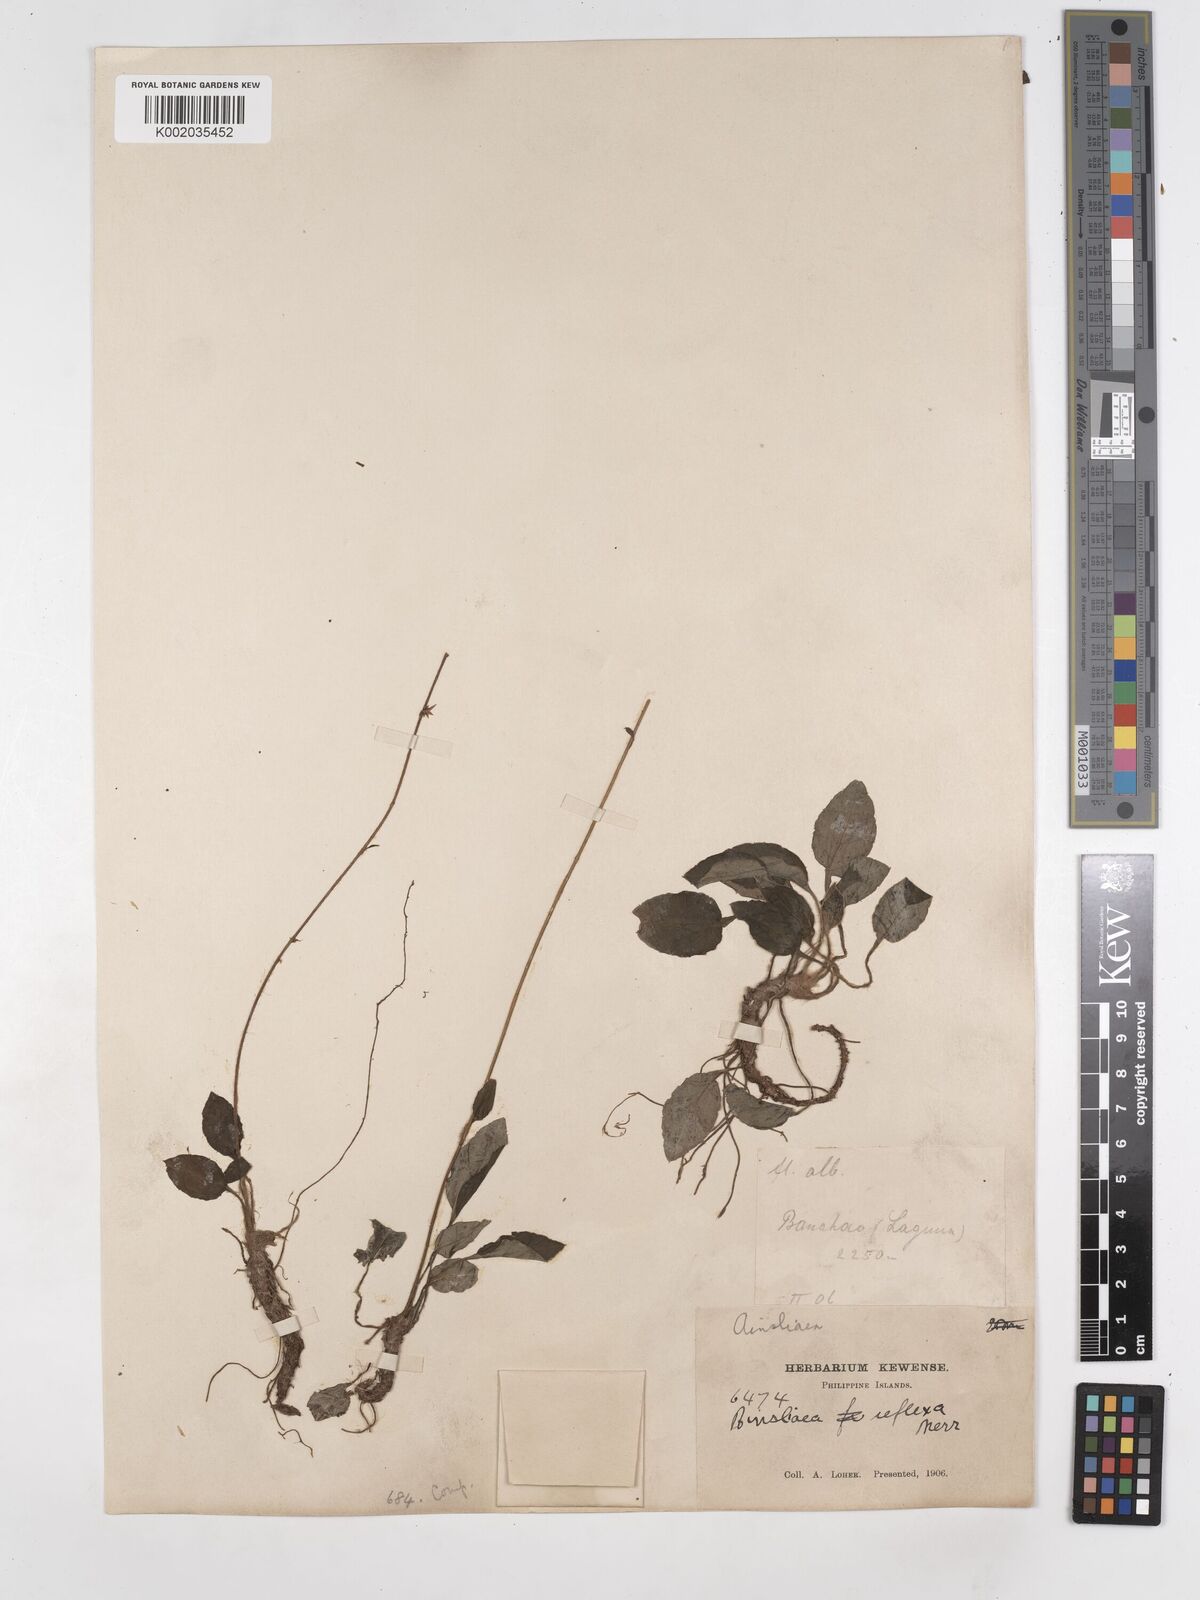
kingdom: Plantae
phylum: Tracheophyta
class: Magnoliopsida
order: Asterales
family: Asteraceae
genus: Ainsliaea
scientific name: Ainsliaea reflexa
